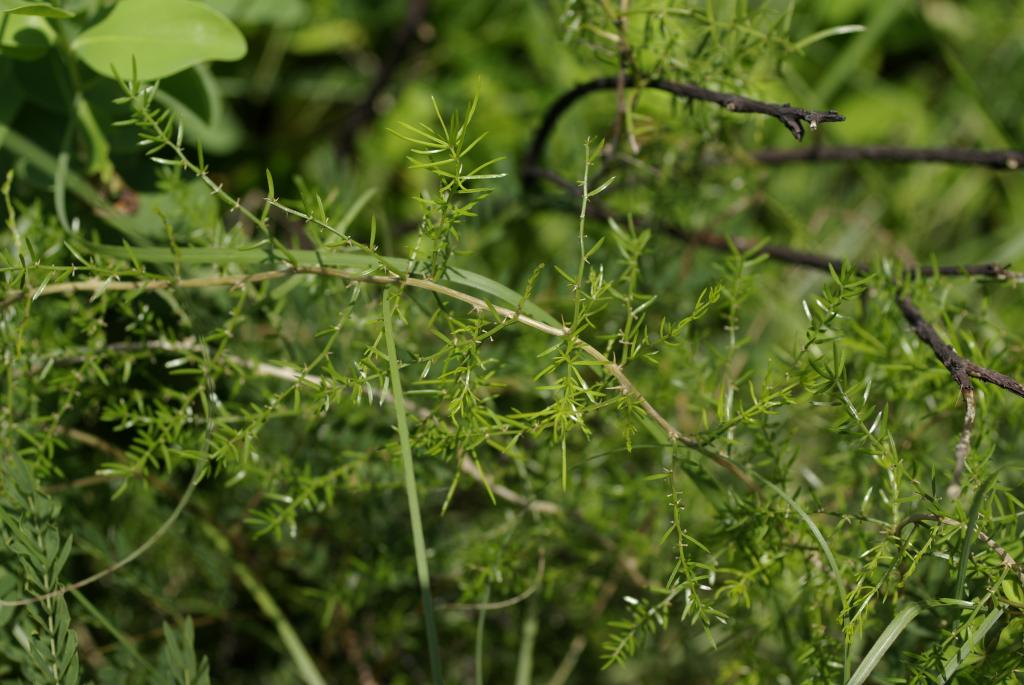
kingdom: Plantae
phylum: Tracheophyta
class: Liliopsida
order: Asparagales
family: Asparagaceae
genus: Asparagus
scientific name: Asparagus cochinchinensis
